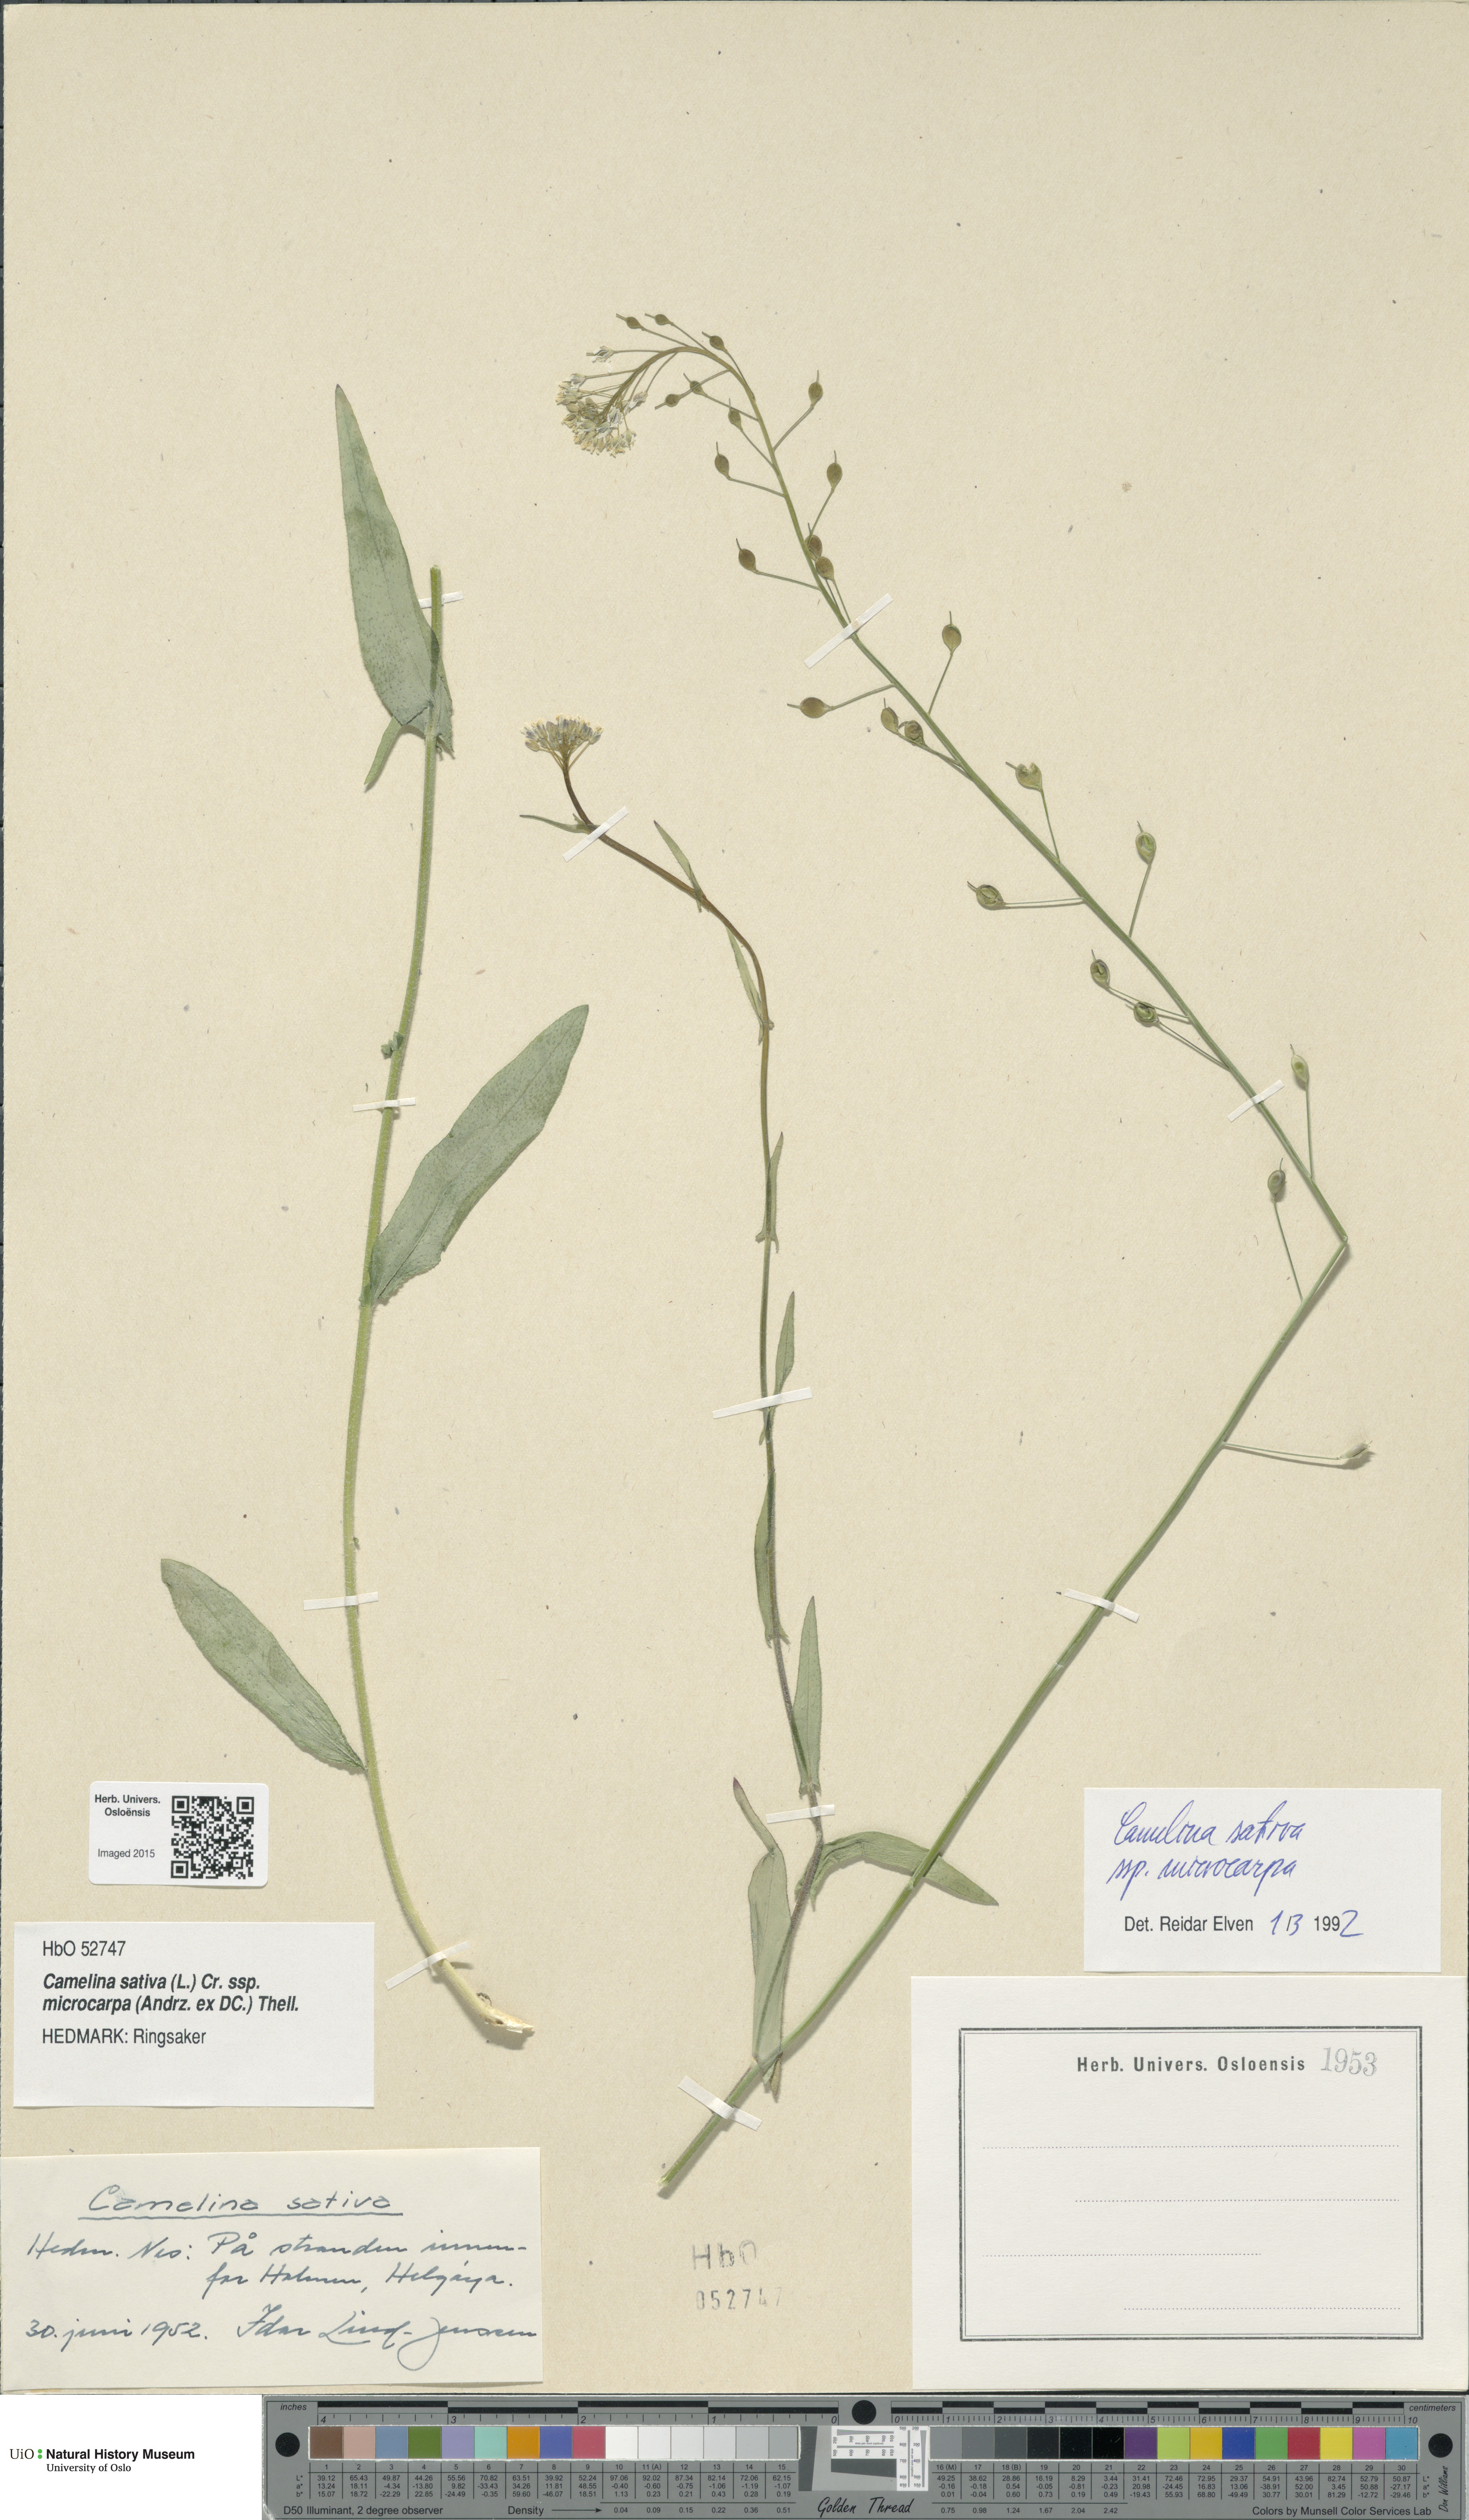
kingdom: Plantae
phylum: Tracheophyta
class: Magnoliopsida
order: Brassicales
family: Brassicaceae
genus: Camelina
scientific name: Camelina sativa
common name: Gold-of-pleasure
